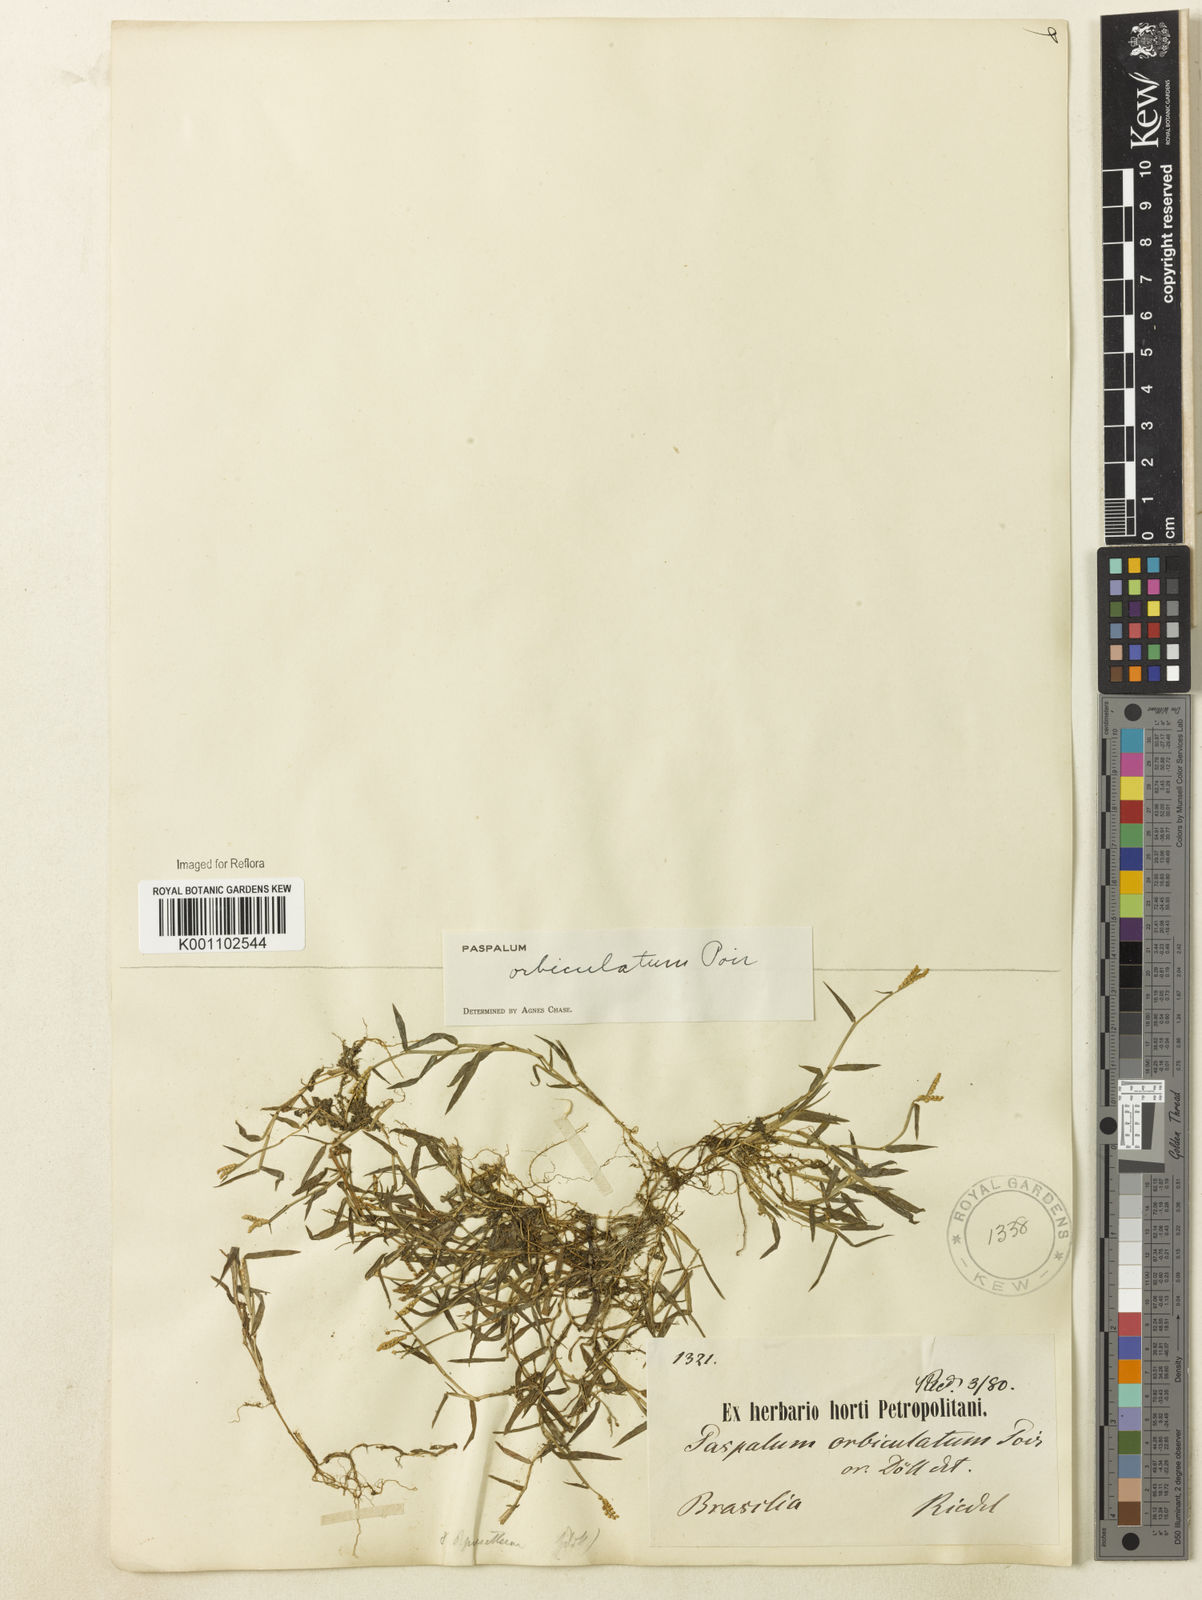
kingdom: Plantae
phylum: Tracheophyta
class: Liliopsida
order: Poales
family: Poaceae
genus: Paspalum
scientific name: Paspalum orbiculatum
